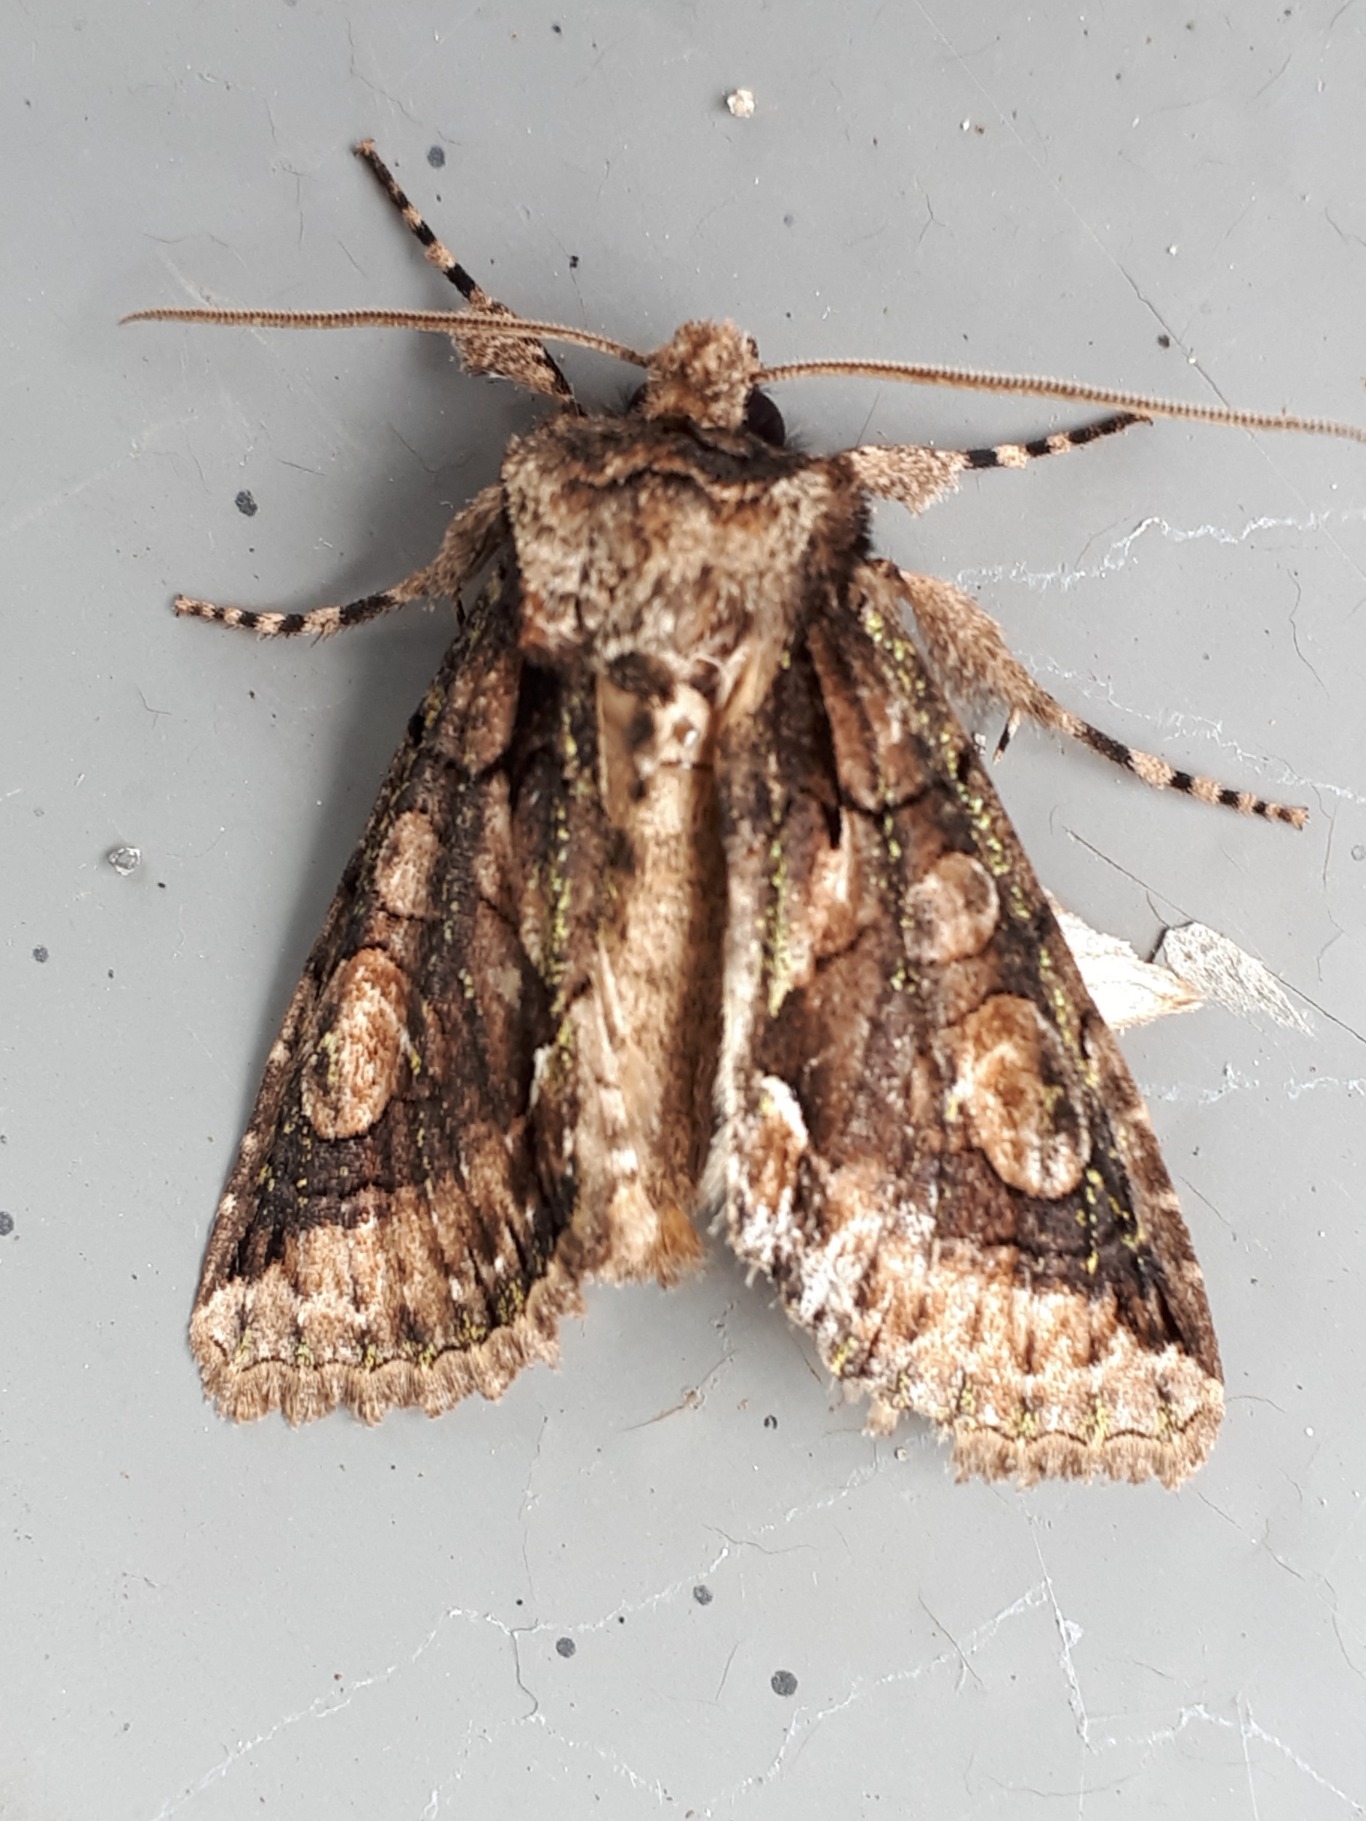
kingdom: Animalia
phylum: Arthropoda
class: Insecta
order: Lepidoptera
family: Noctuidae
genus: Allophyes
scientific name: Allophyes oxyacanthae
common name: Tjørneugle
